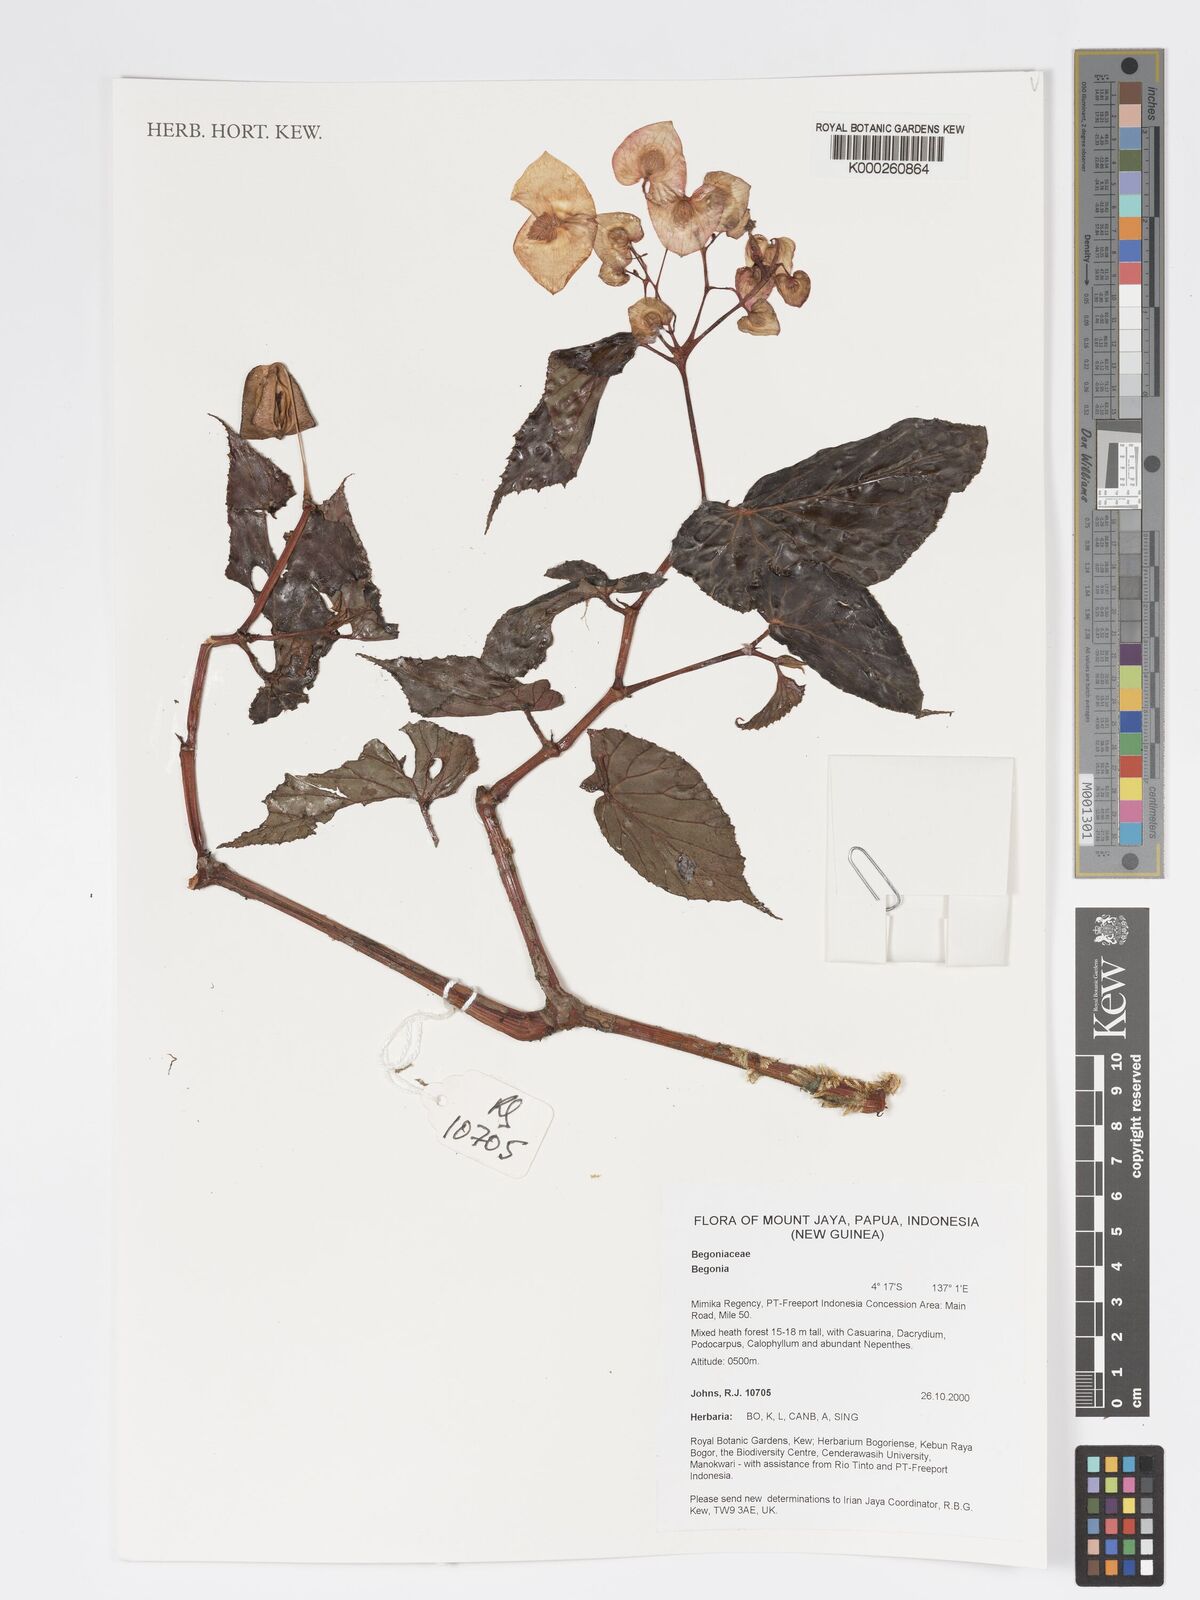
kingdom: Plantae
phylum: Tracheophyta
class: Magnoliopsida
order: Cucurbitales
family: Begoniaceae
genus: Begonia
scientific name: Begonia
